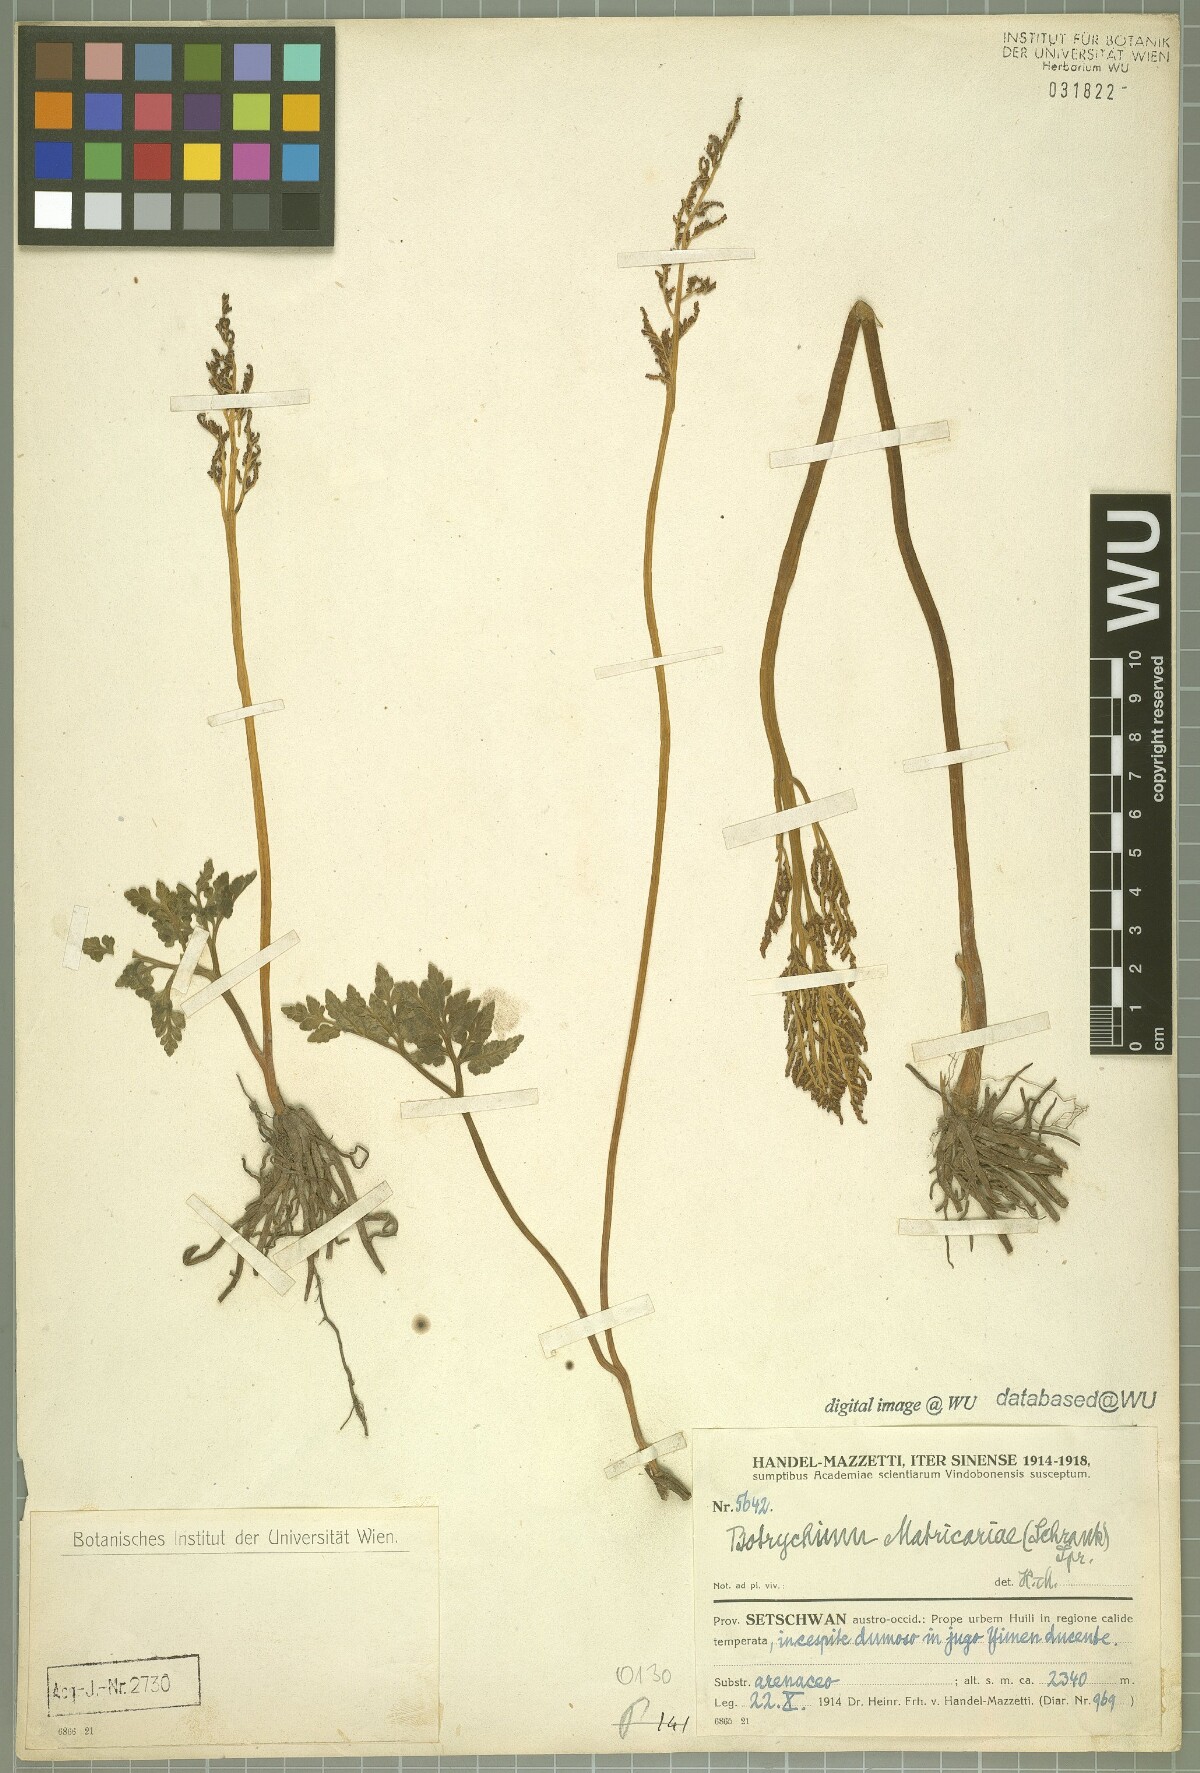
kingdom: Plantae
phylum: Tracheophyta
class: Polypodiopsida
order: Ophioglossales
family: Ophioglossaceae
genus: Sceptridium
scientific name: Sceptridium multifidum
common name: Leathery grape fern
